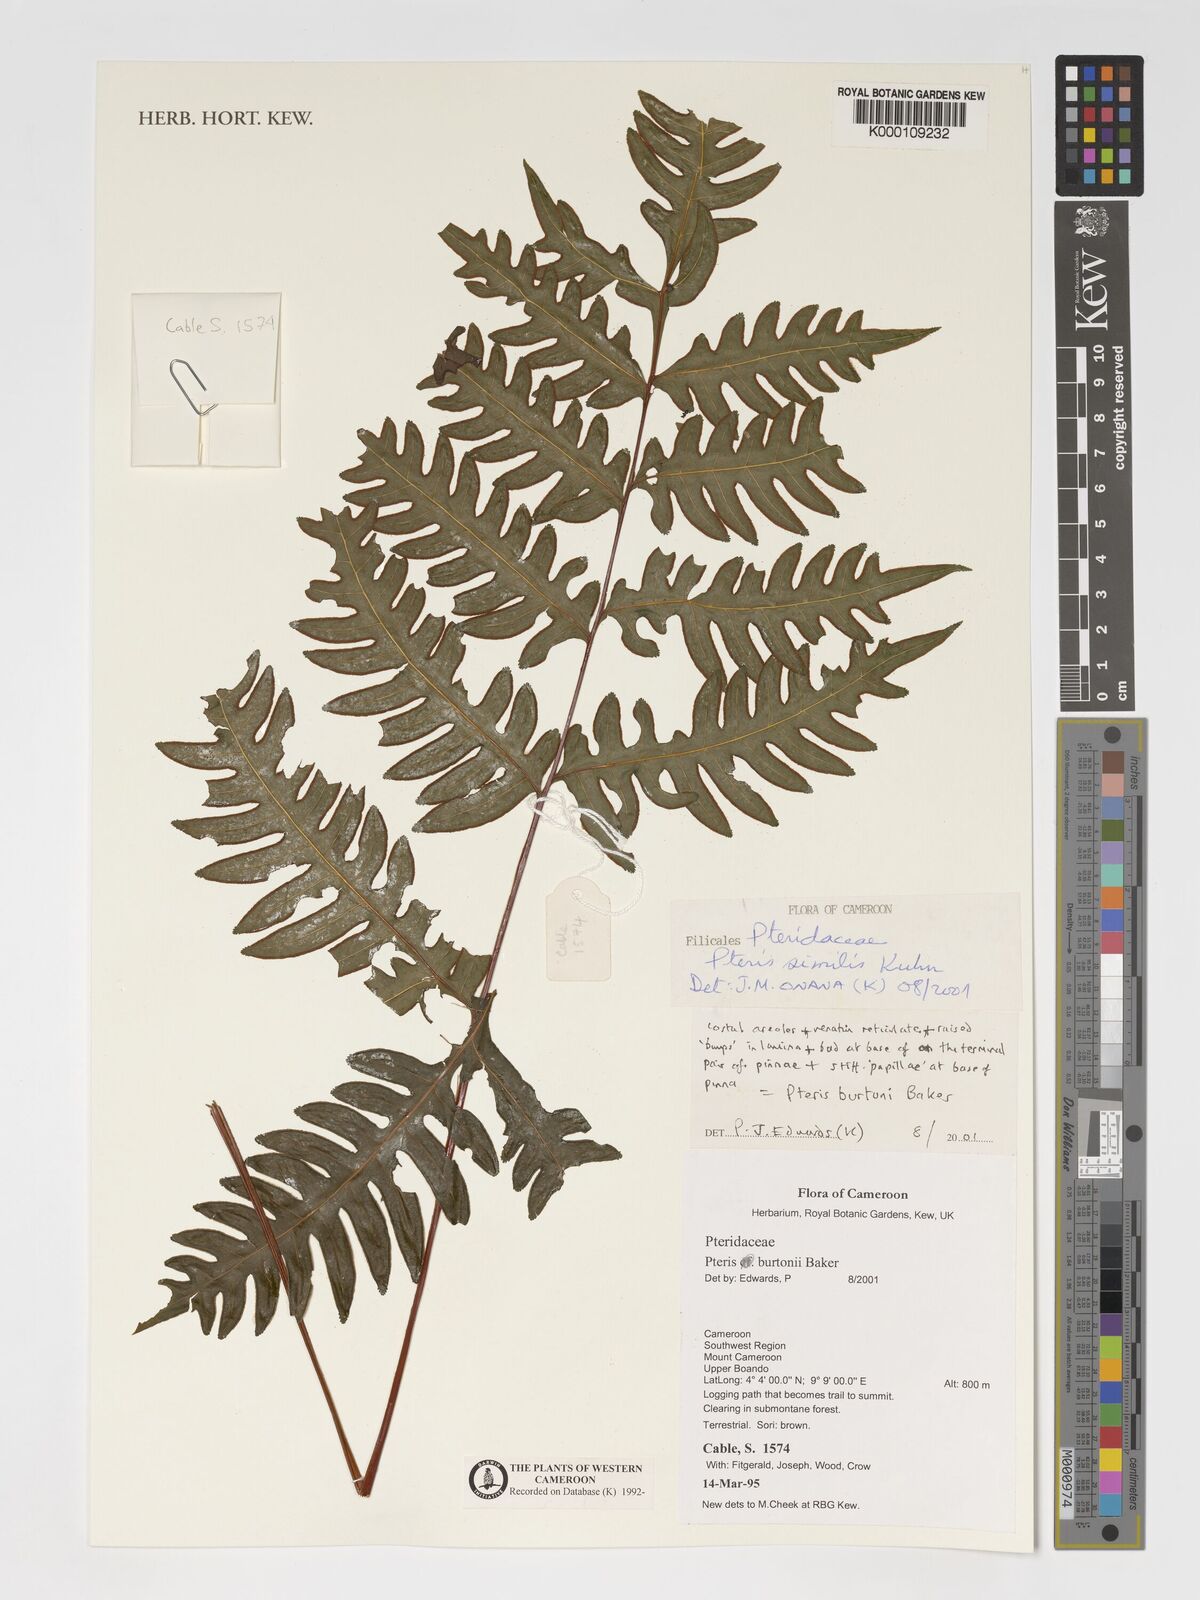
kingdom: Plantae
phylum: Tracheophyta
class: Polypodiopsida
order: Polypodiales
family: Pteridaceae
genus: Pteris
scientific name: Pteris similis
